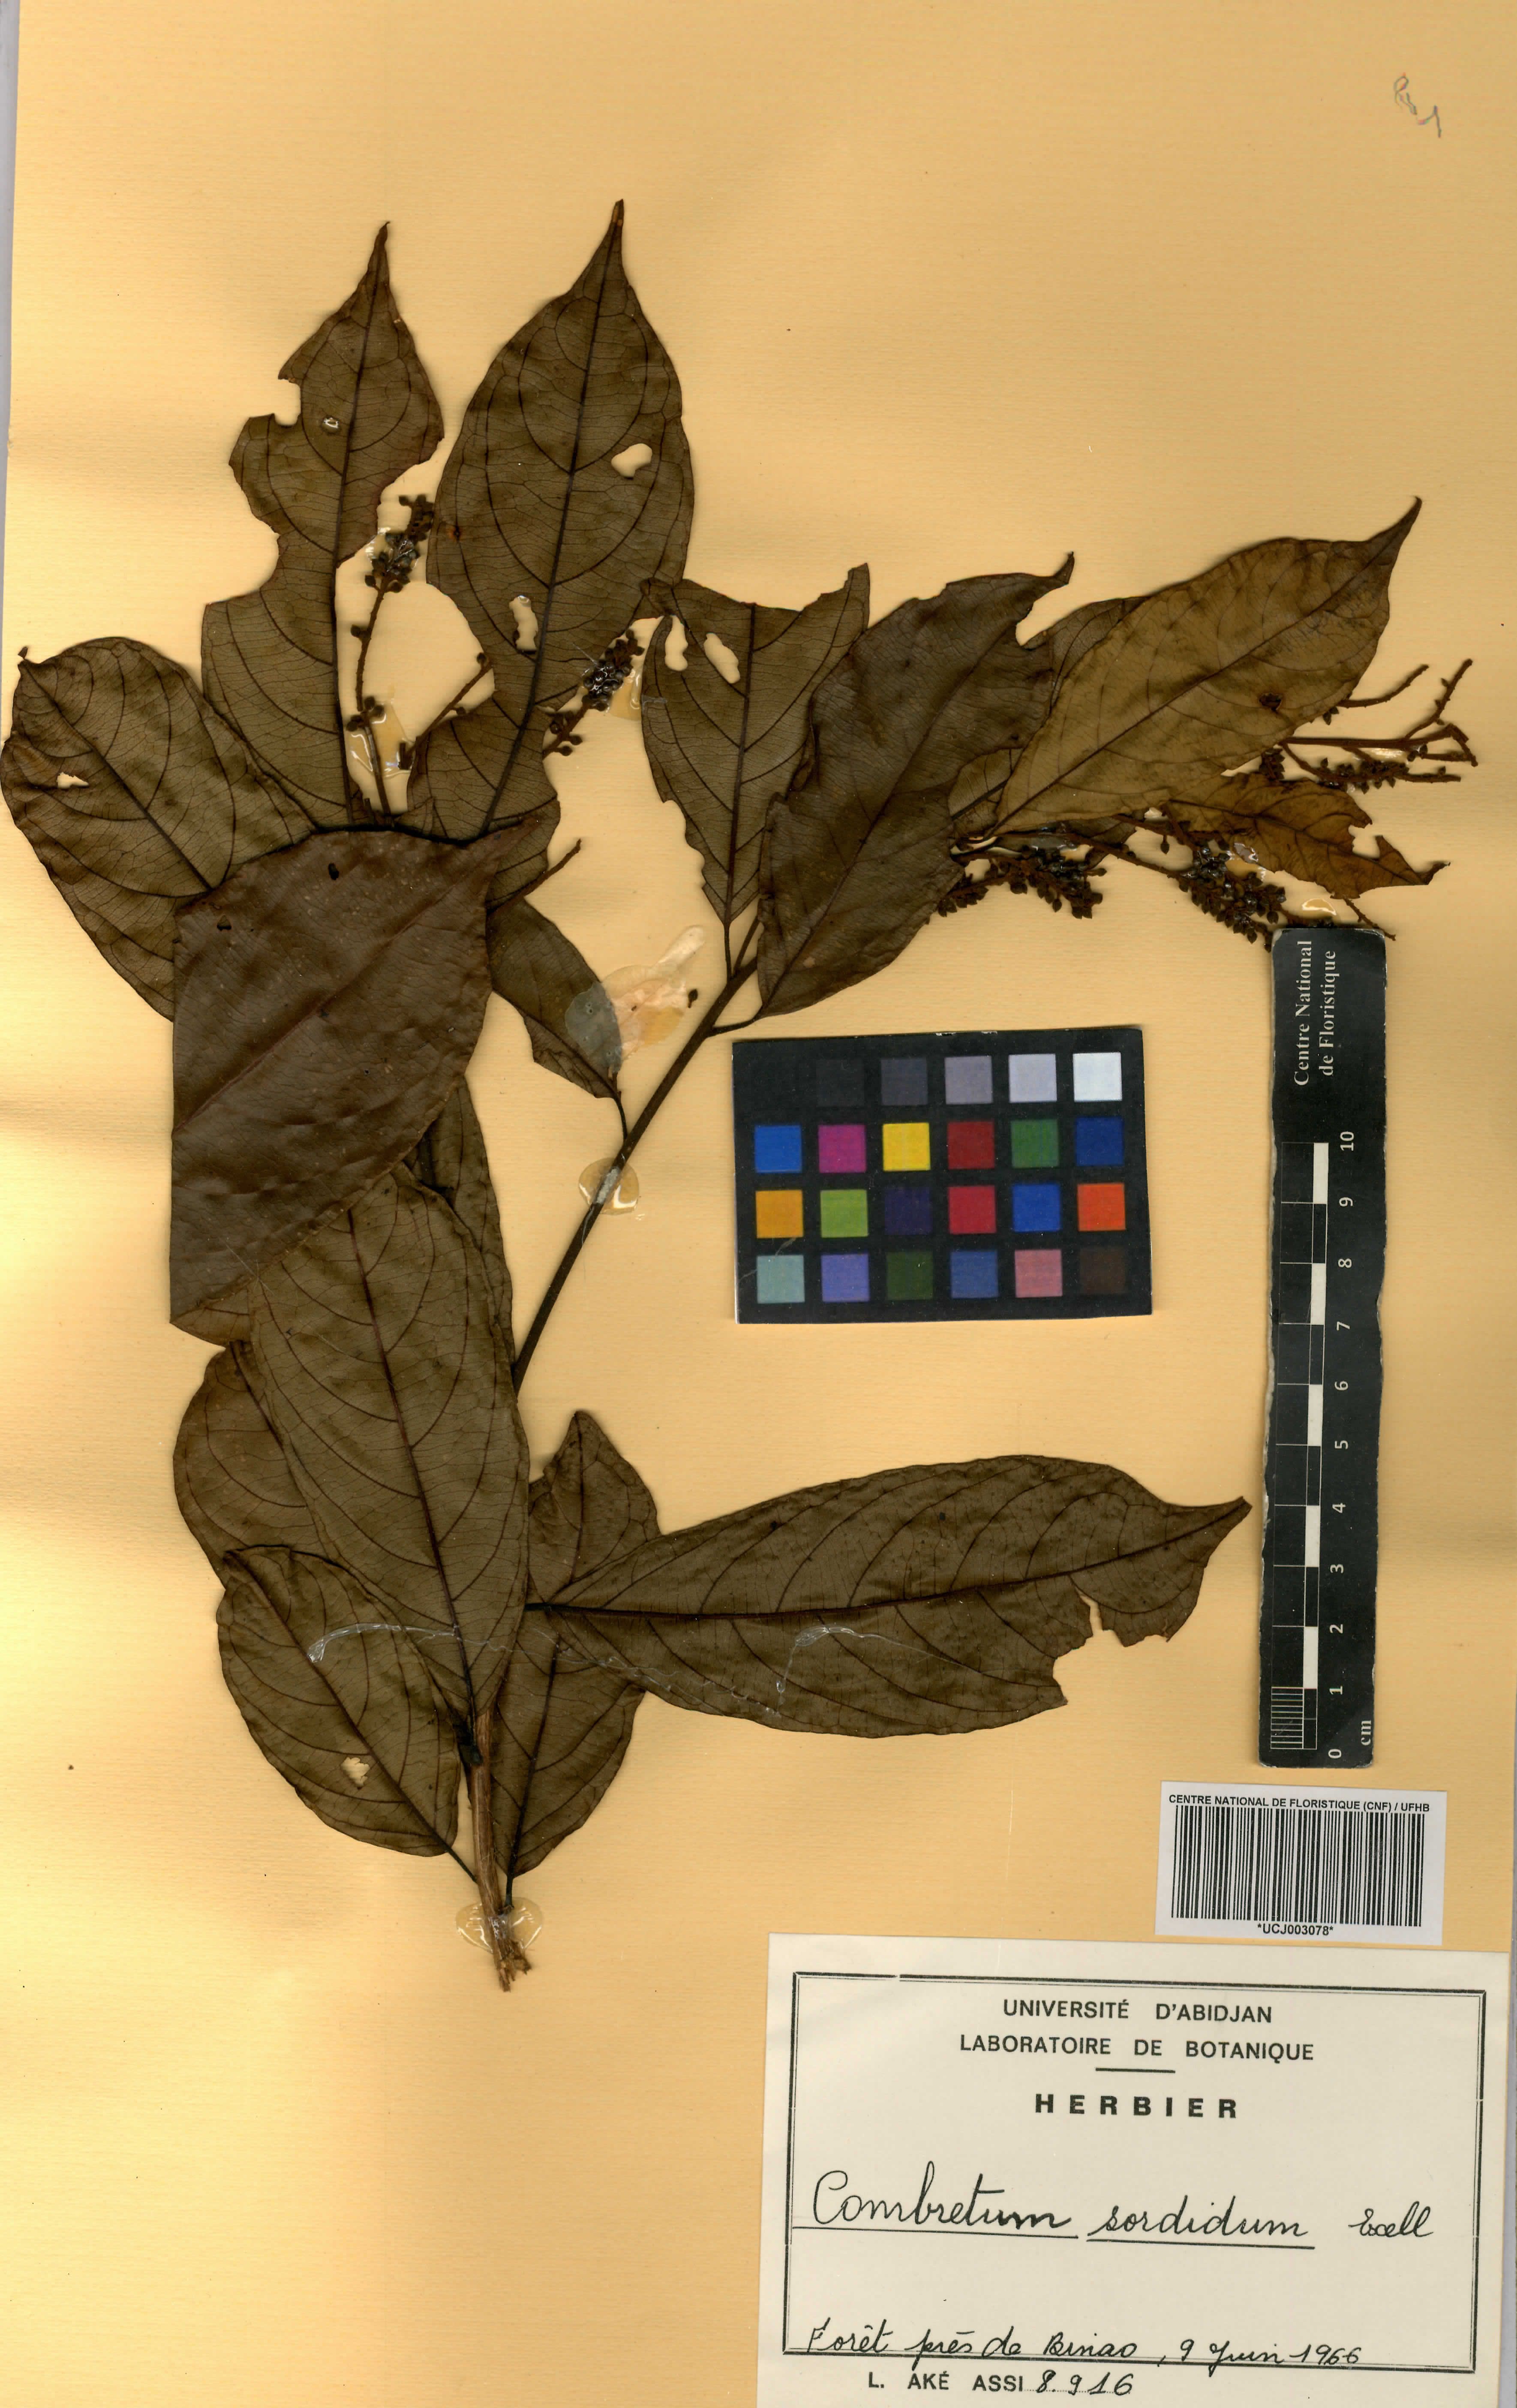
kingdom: Plantae
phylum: Tracheophyta
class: Magnoliopsida
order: Myrtales
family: Combretaceae
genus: Combretum
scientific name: Combretum sordidum
